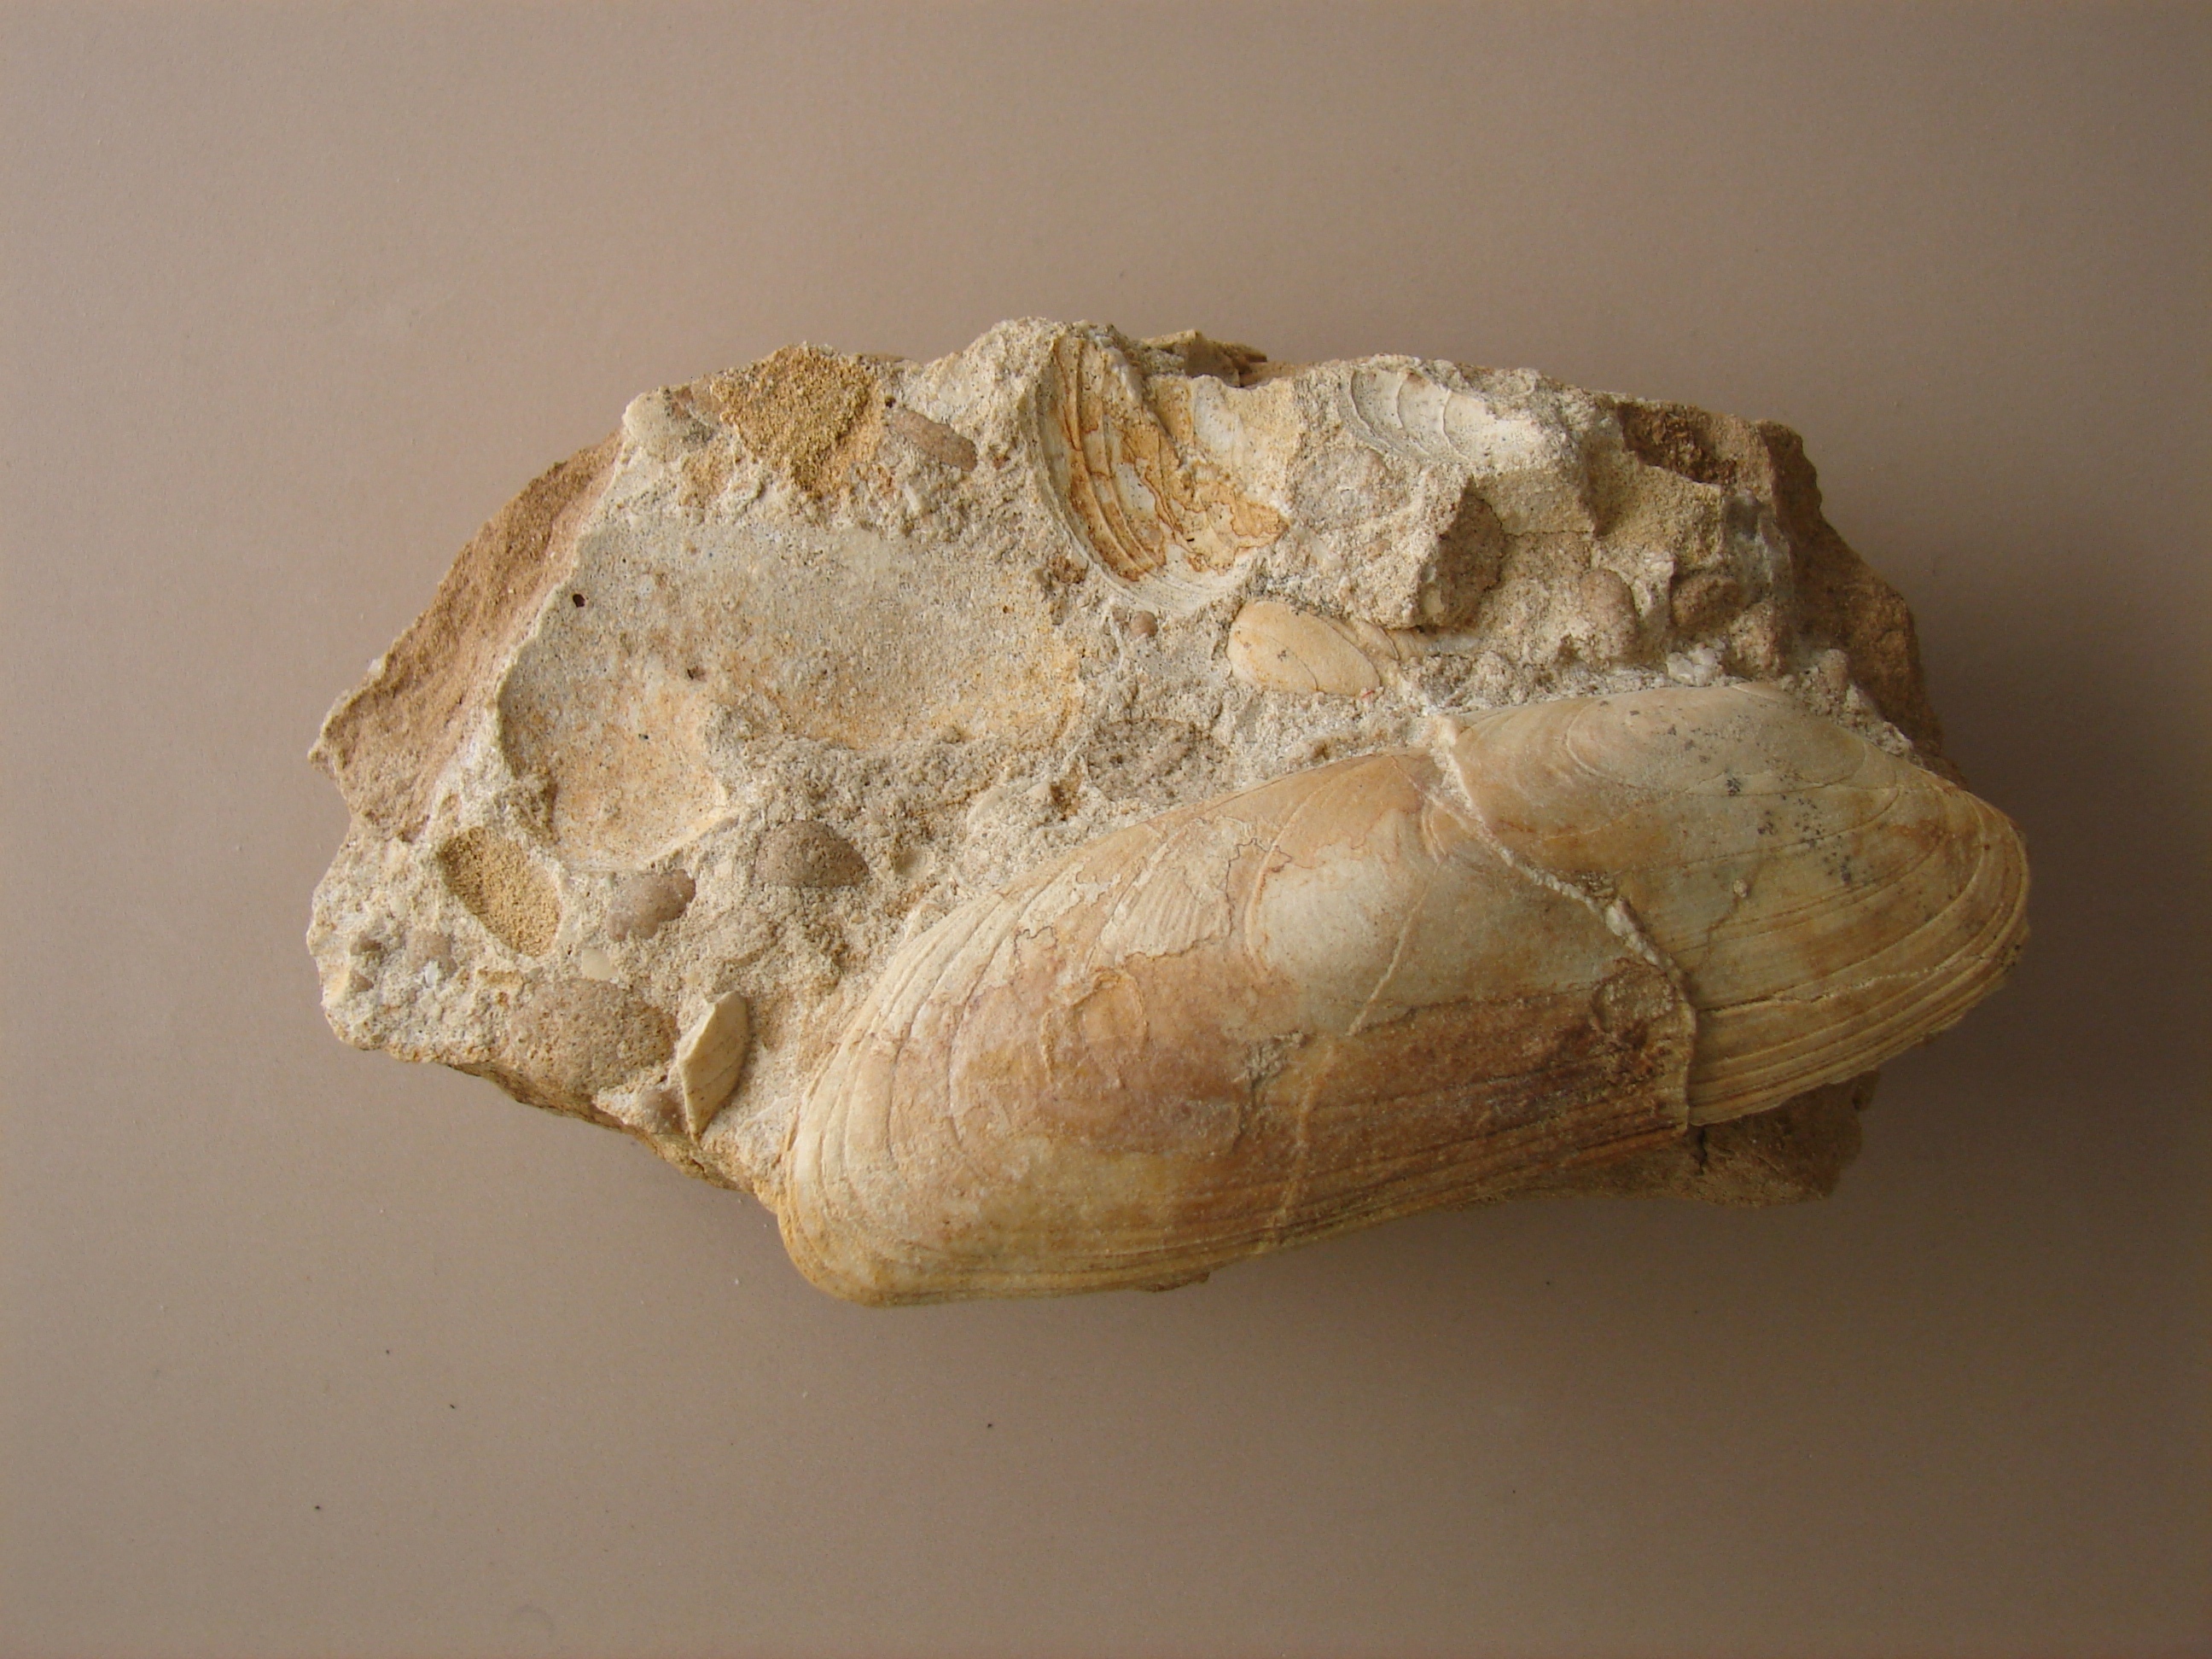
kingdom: Animalia
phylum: Mollusca
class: Bivalvia
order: Carditida
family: Cardiniidae
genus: Cardinia
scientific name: Cardinia
